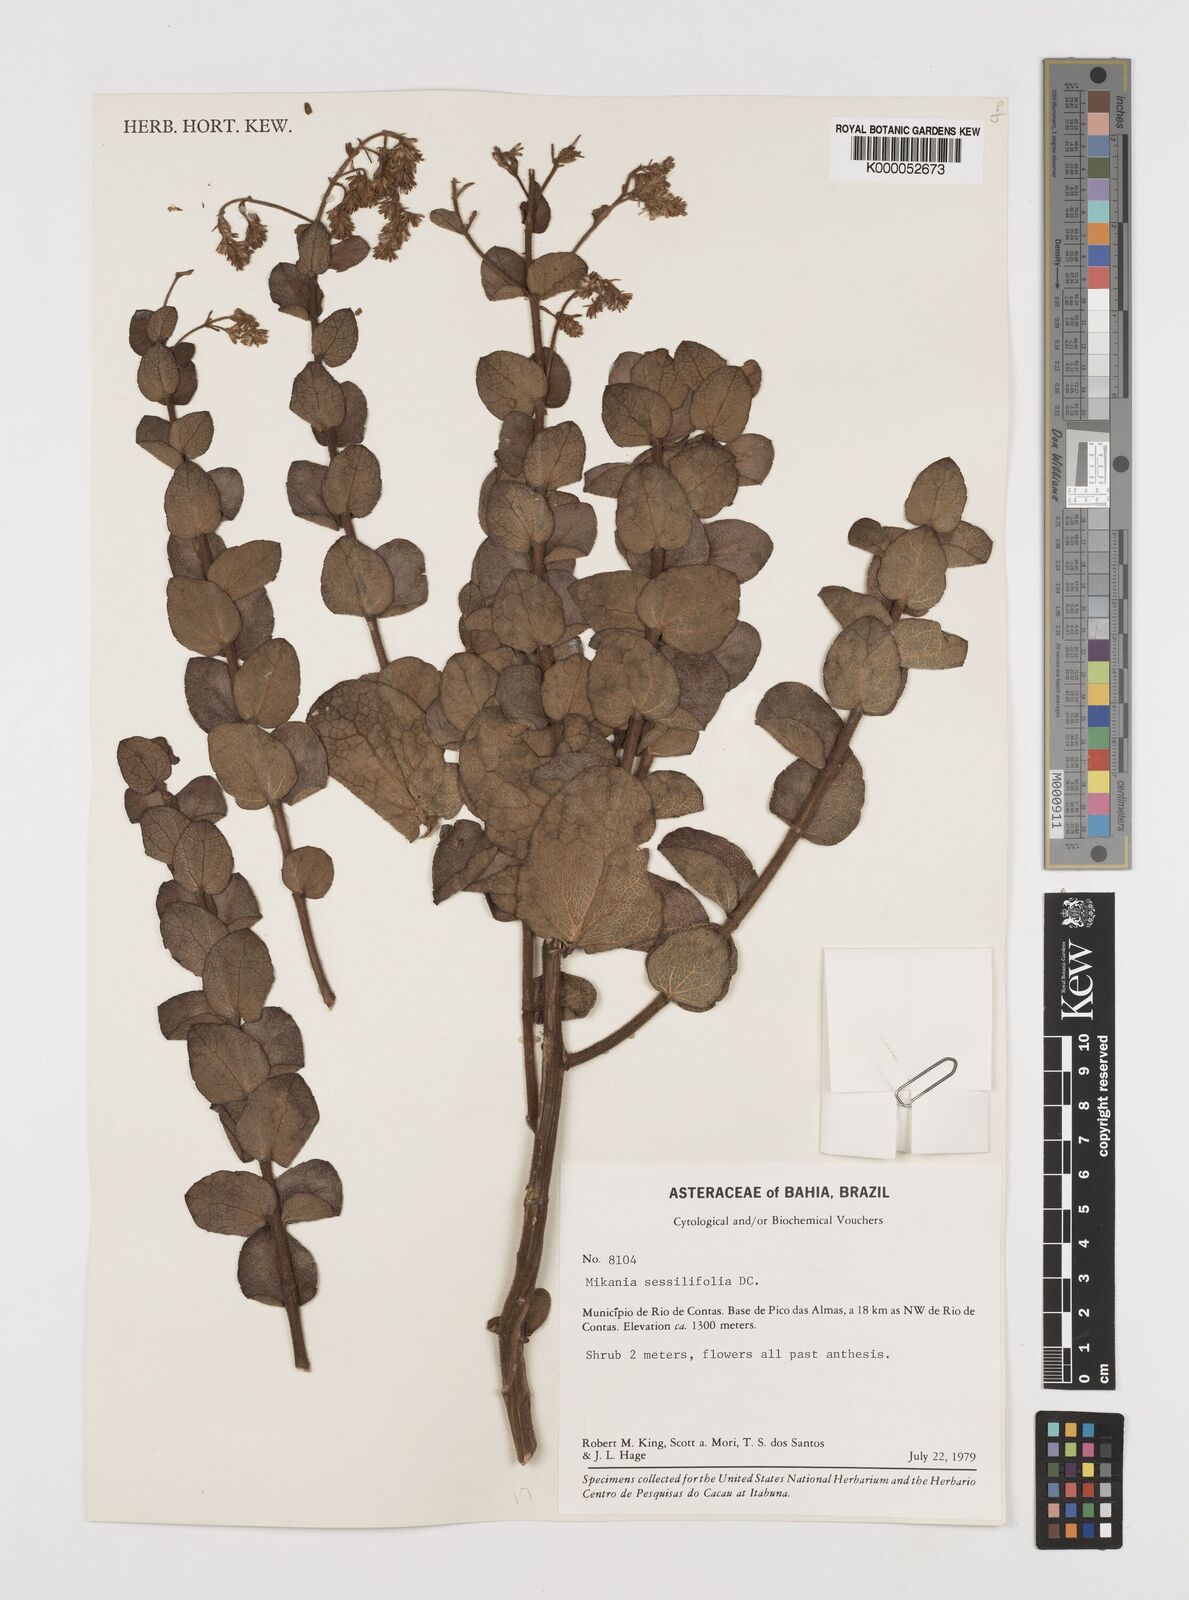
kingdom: Plantae
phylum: Tracheophyta
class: Magnoliopsida
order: Asterales
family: Asteraceae
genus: Mikania
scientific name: Mikania sessilifolia
